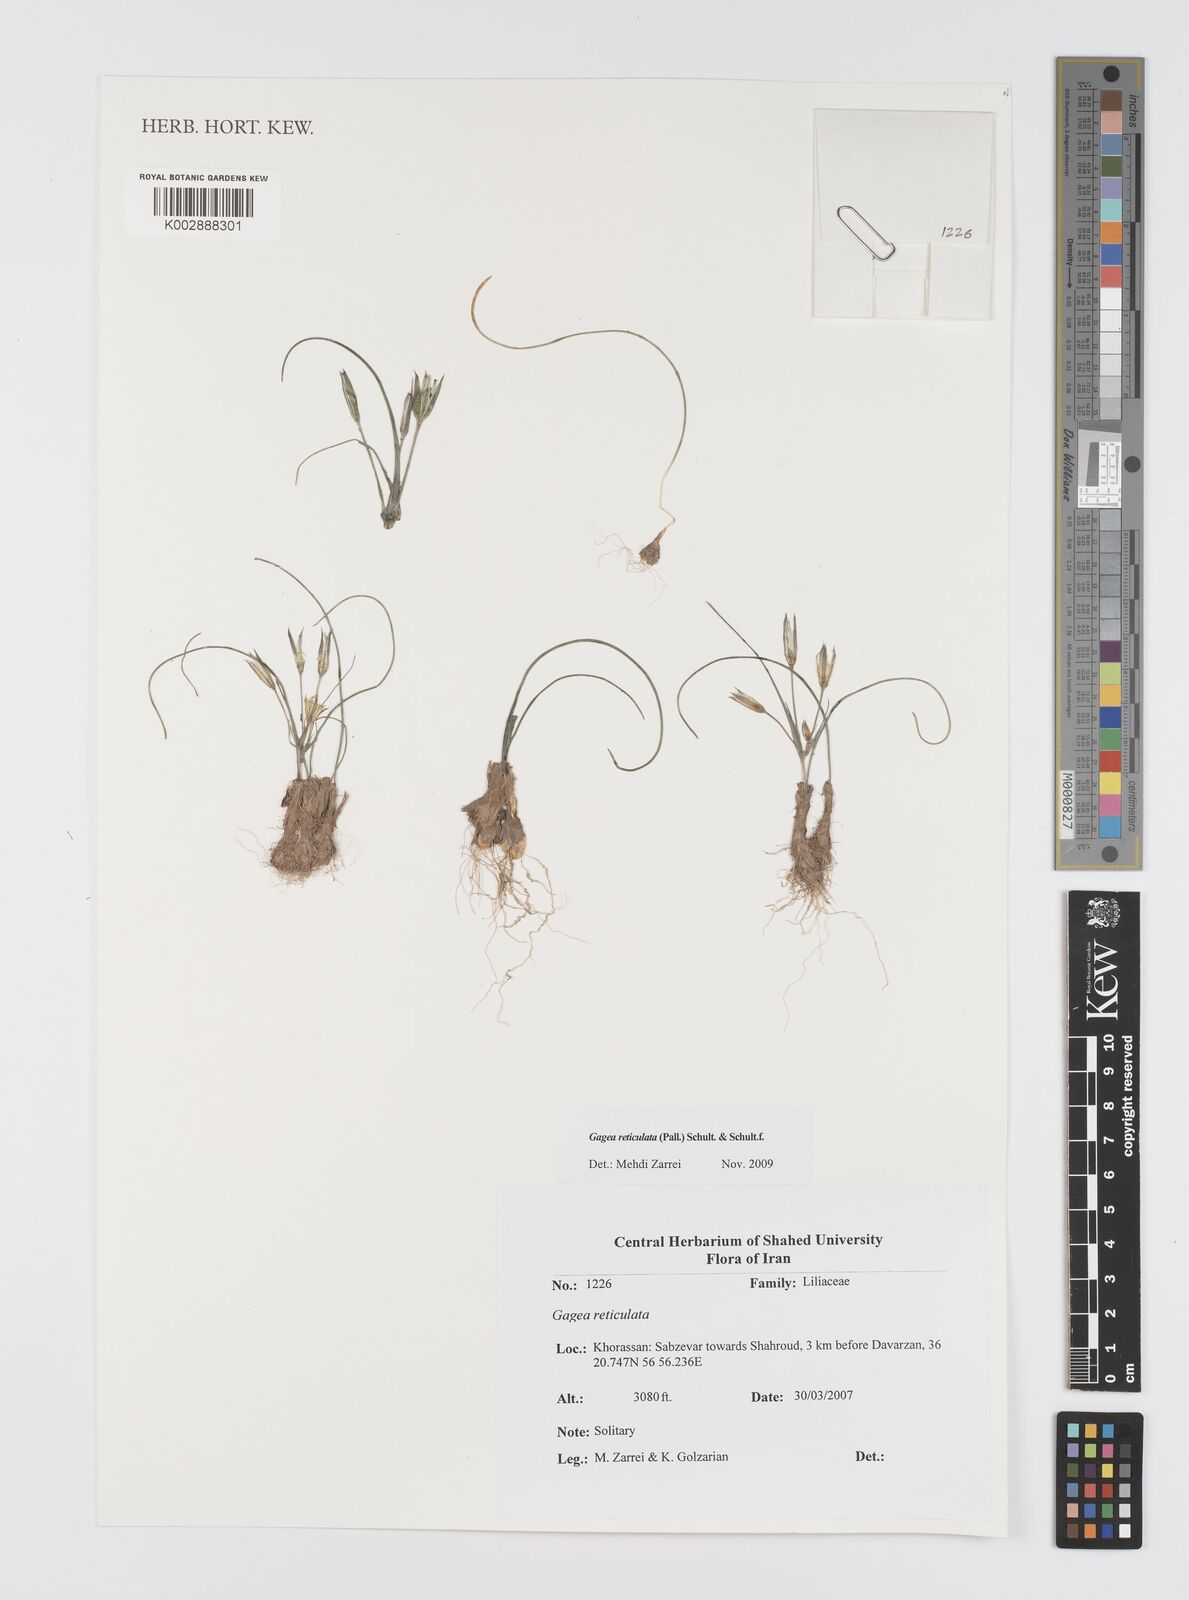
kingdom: Plantae
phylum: Tracheophyta
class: Liliopsida
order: Liliales
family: Liliaceae
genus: Gagea
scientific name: Gagea reticulata
